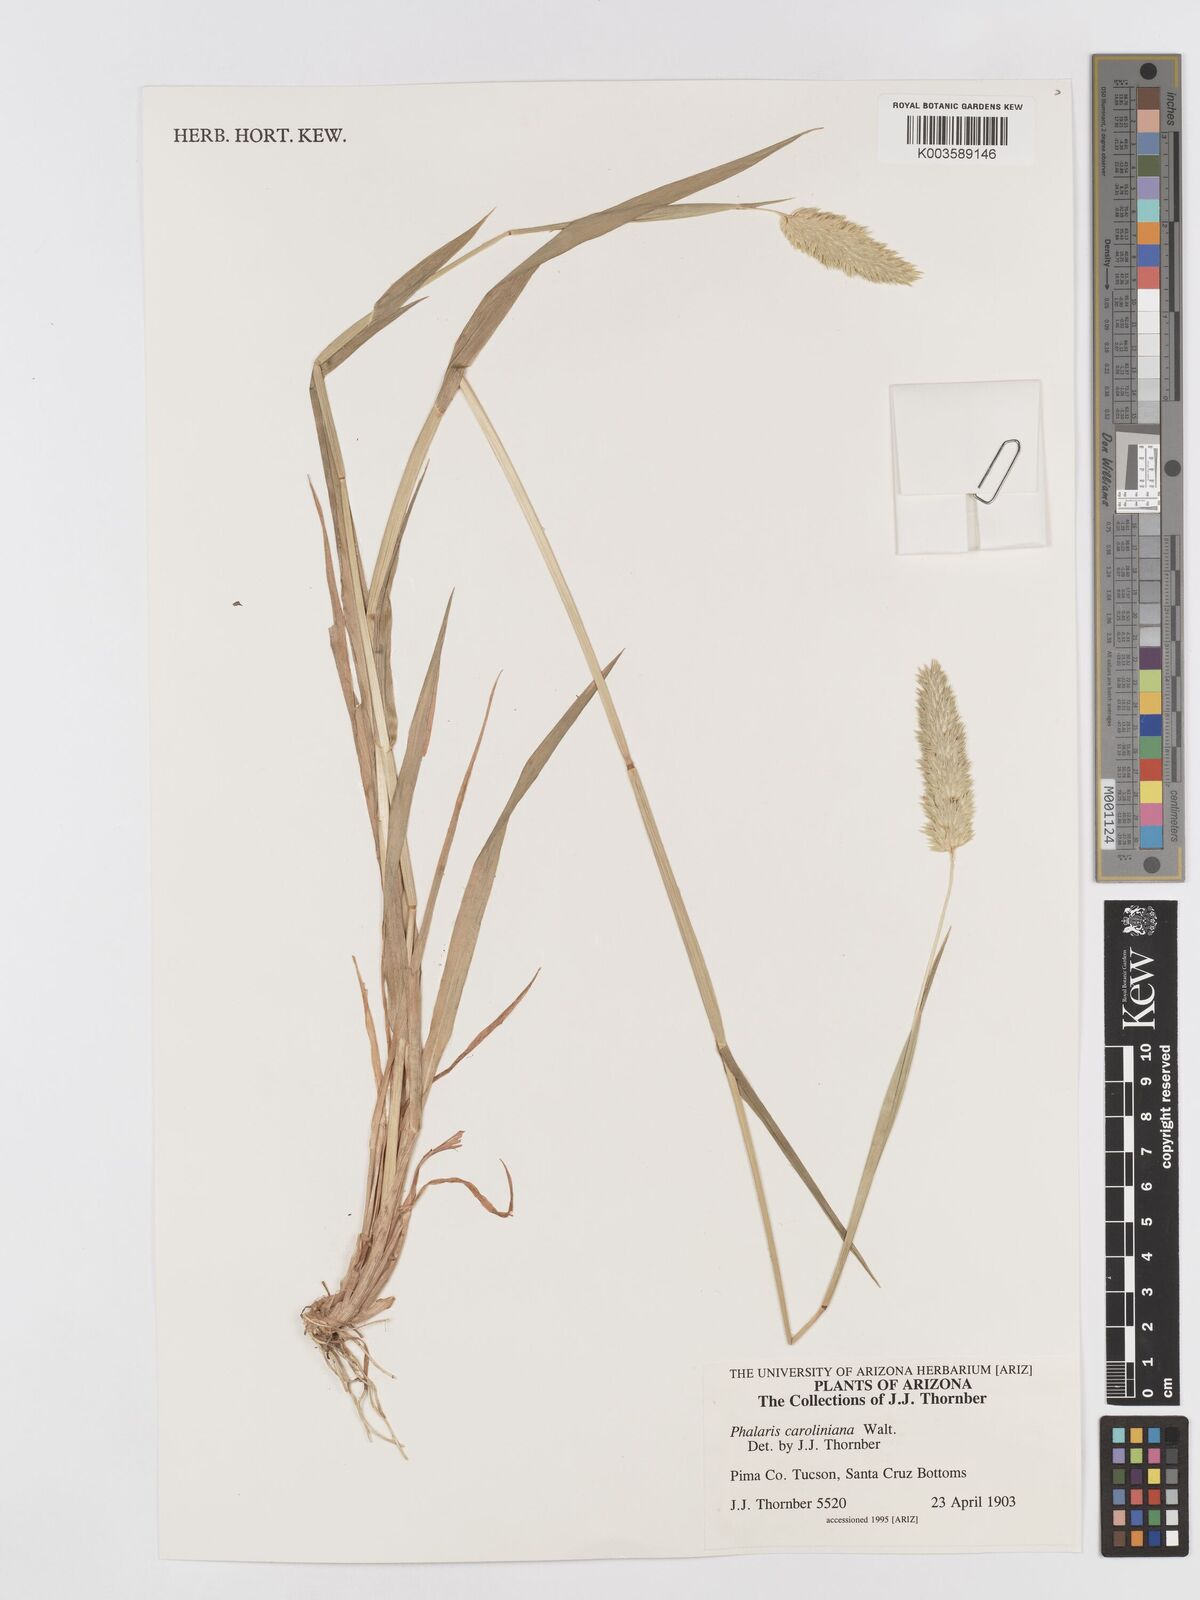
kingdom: Plantae
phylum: Tracheophyta
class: Liliopsida
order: Poales
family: Poaceae
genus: Phalaris
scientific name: Phalaris caroliniana
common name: May grass
